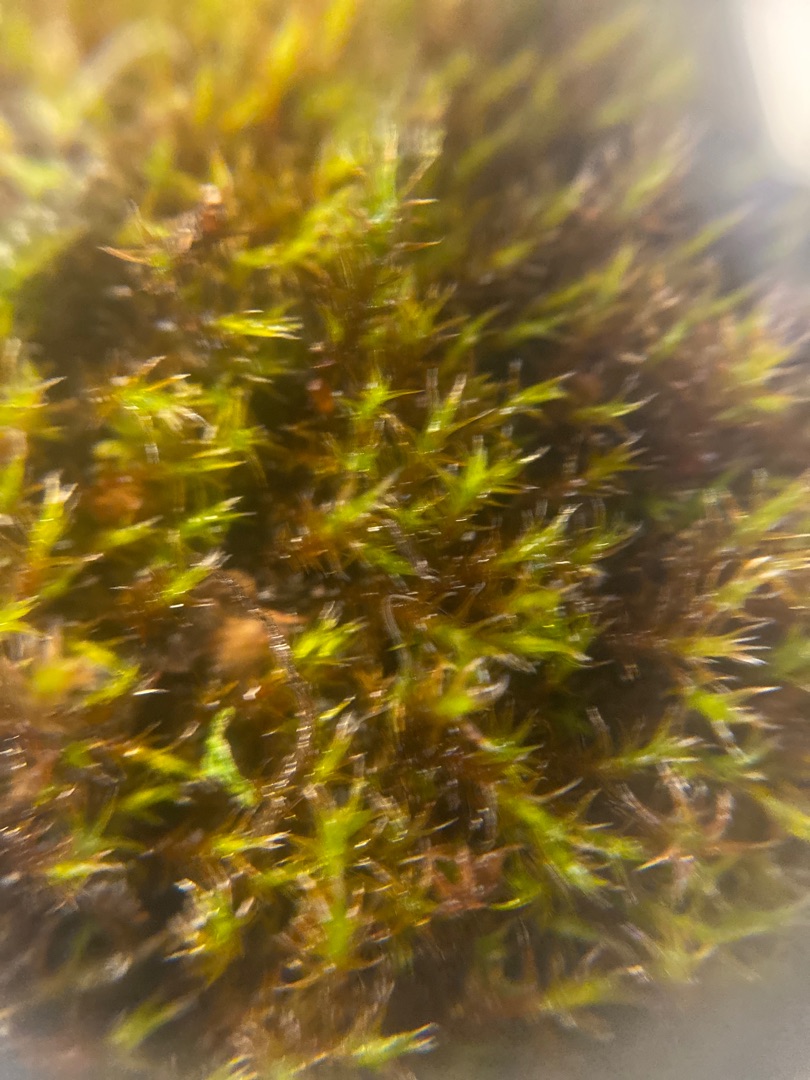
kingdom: Plantae
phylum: Bryophyta
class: Bryopsida
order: Grimmiales
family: Grimmiaceae
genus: Schistidium
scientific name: Schistidium apocarpum
